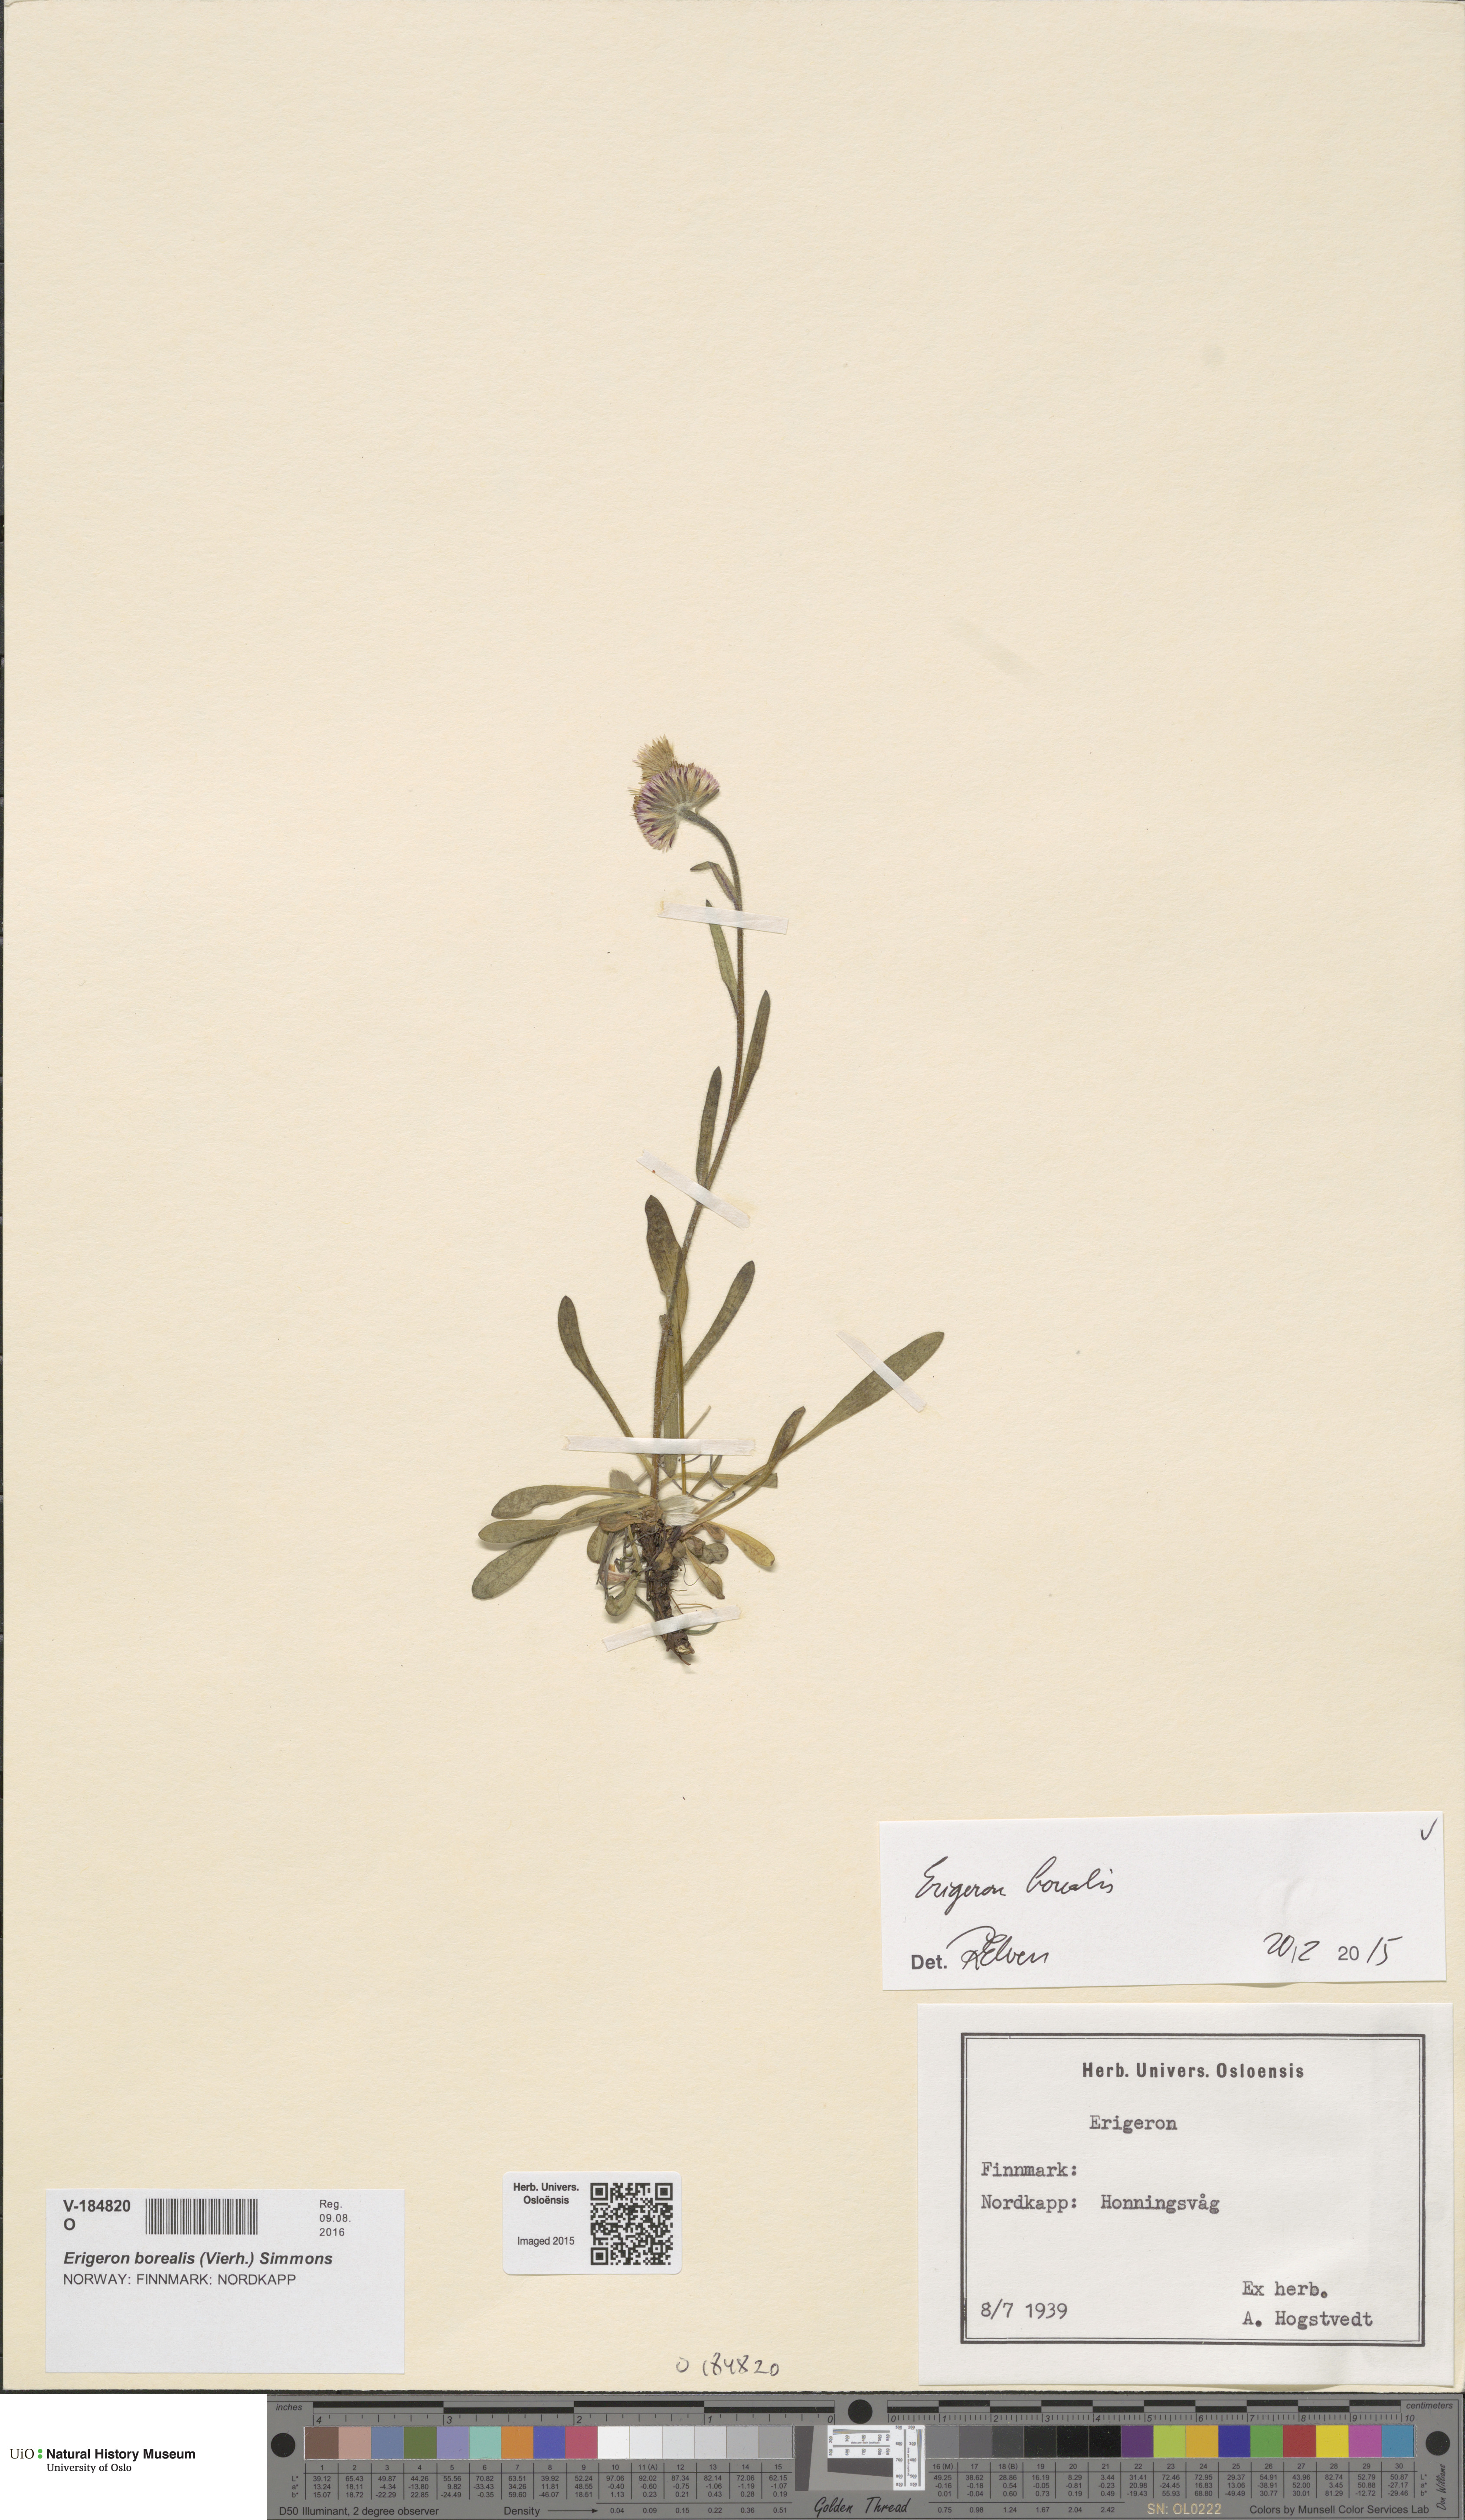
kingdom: Plantae
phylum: Tracheophyta
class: Magnoliopsida
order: Asterales
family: Asteraceae
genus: Erigeron
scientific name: Erigeron borealis
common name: Alpine fleabane
